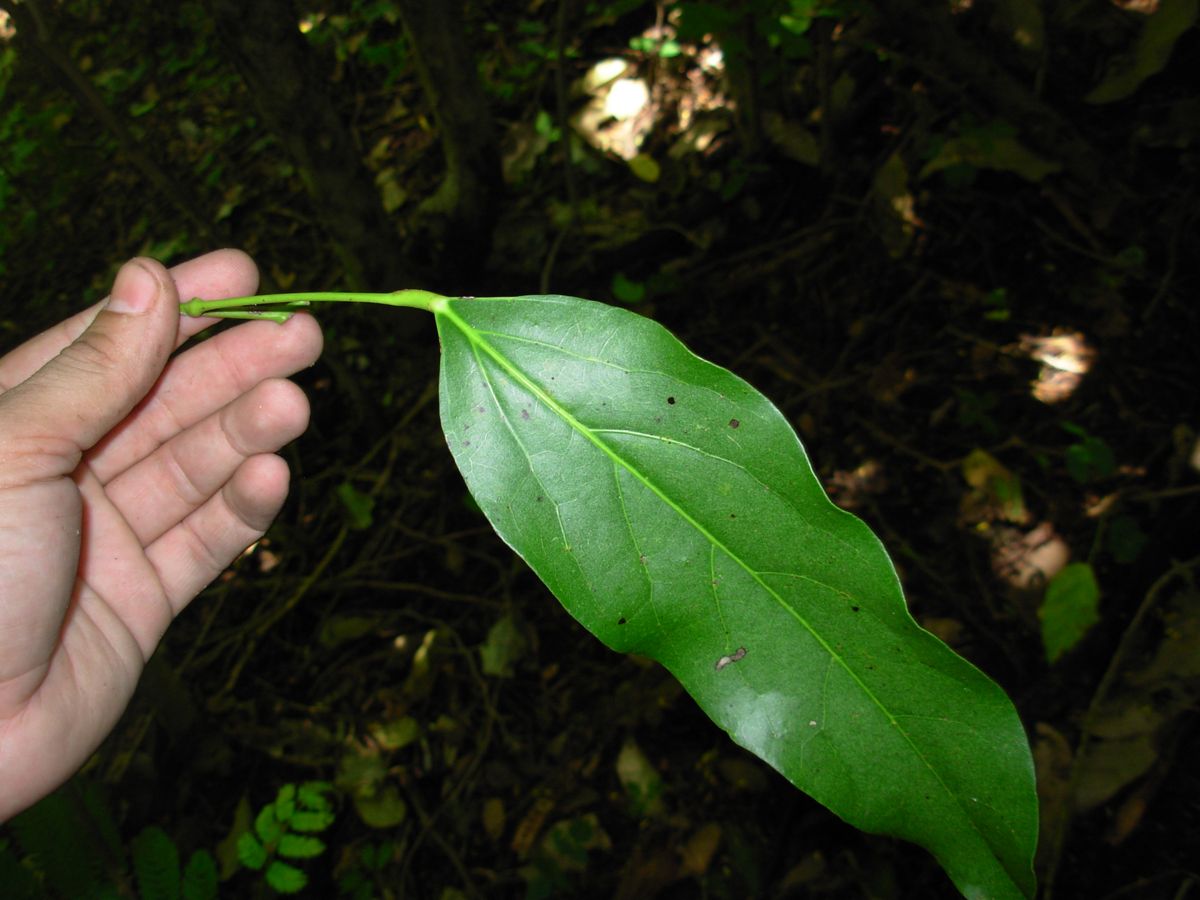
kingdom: Plantae
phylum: Tracheophyta
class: Magnoliopsida
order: Ranunculales
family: Menispermaceae
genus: Hyperbaena
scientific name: Hyperbaena tonduzii
